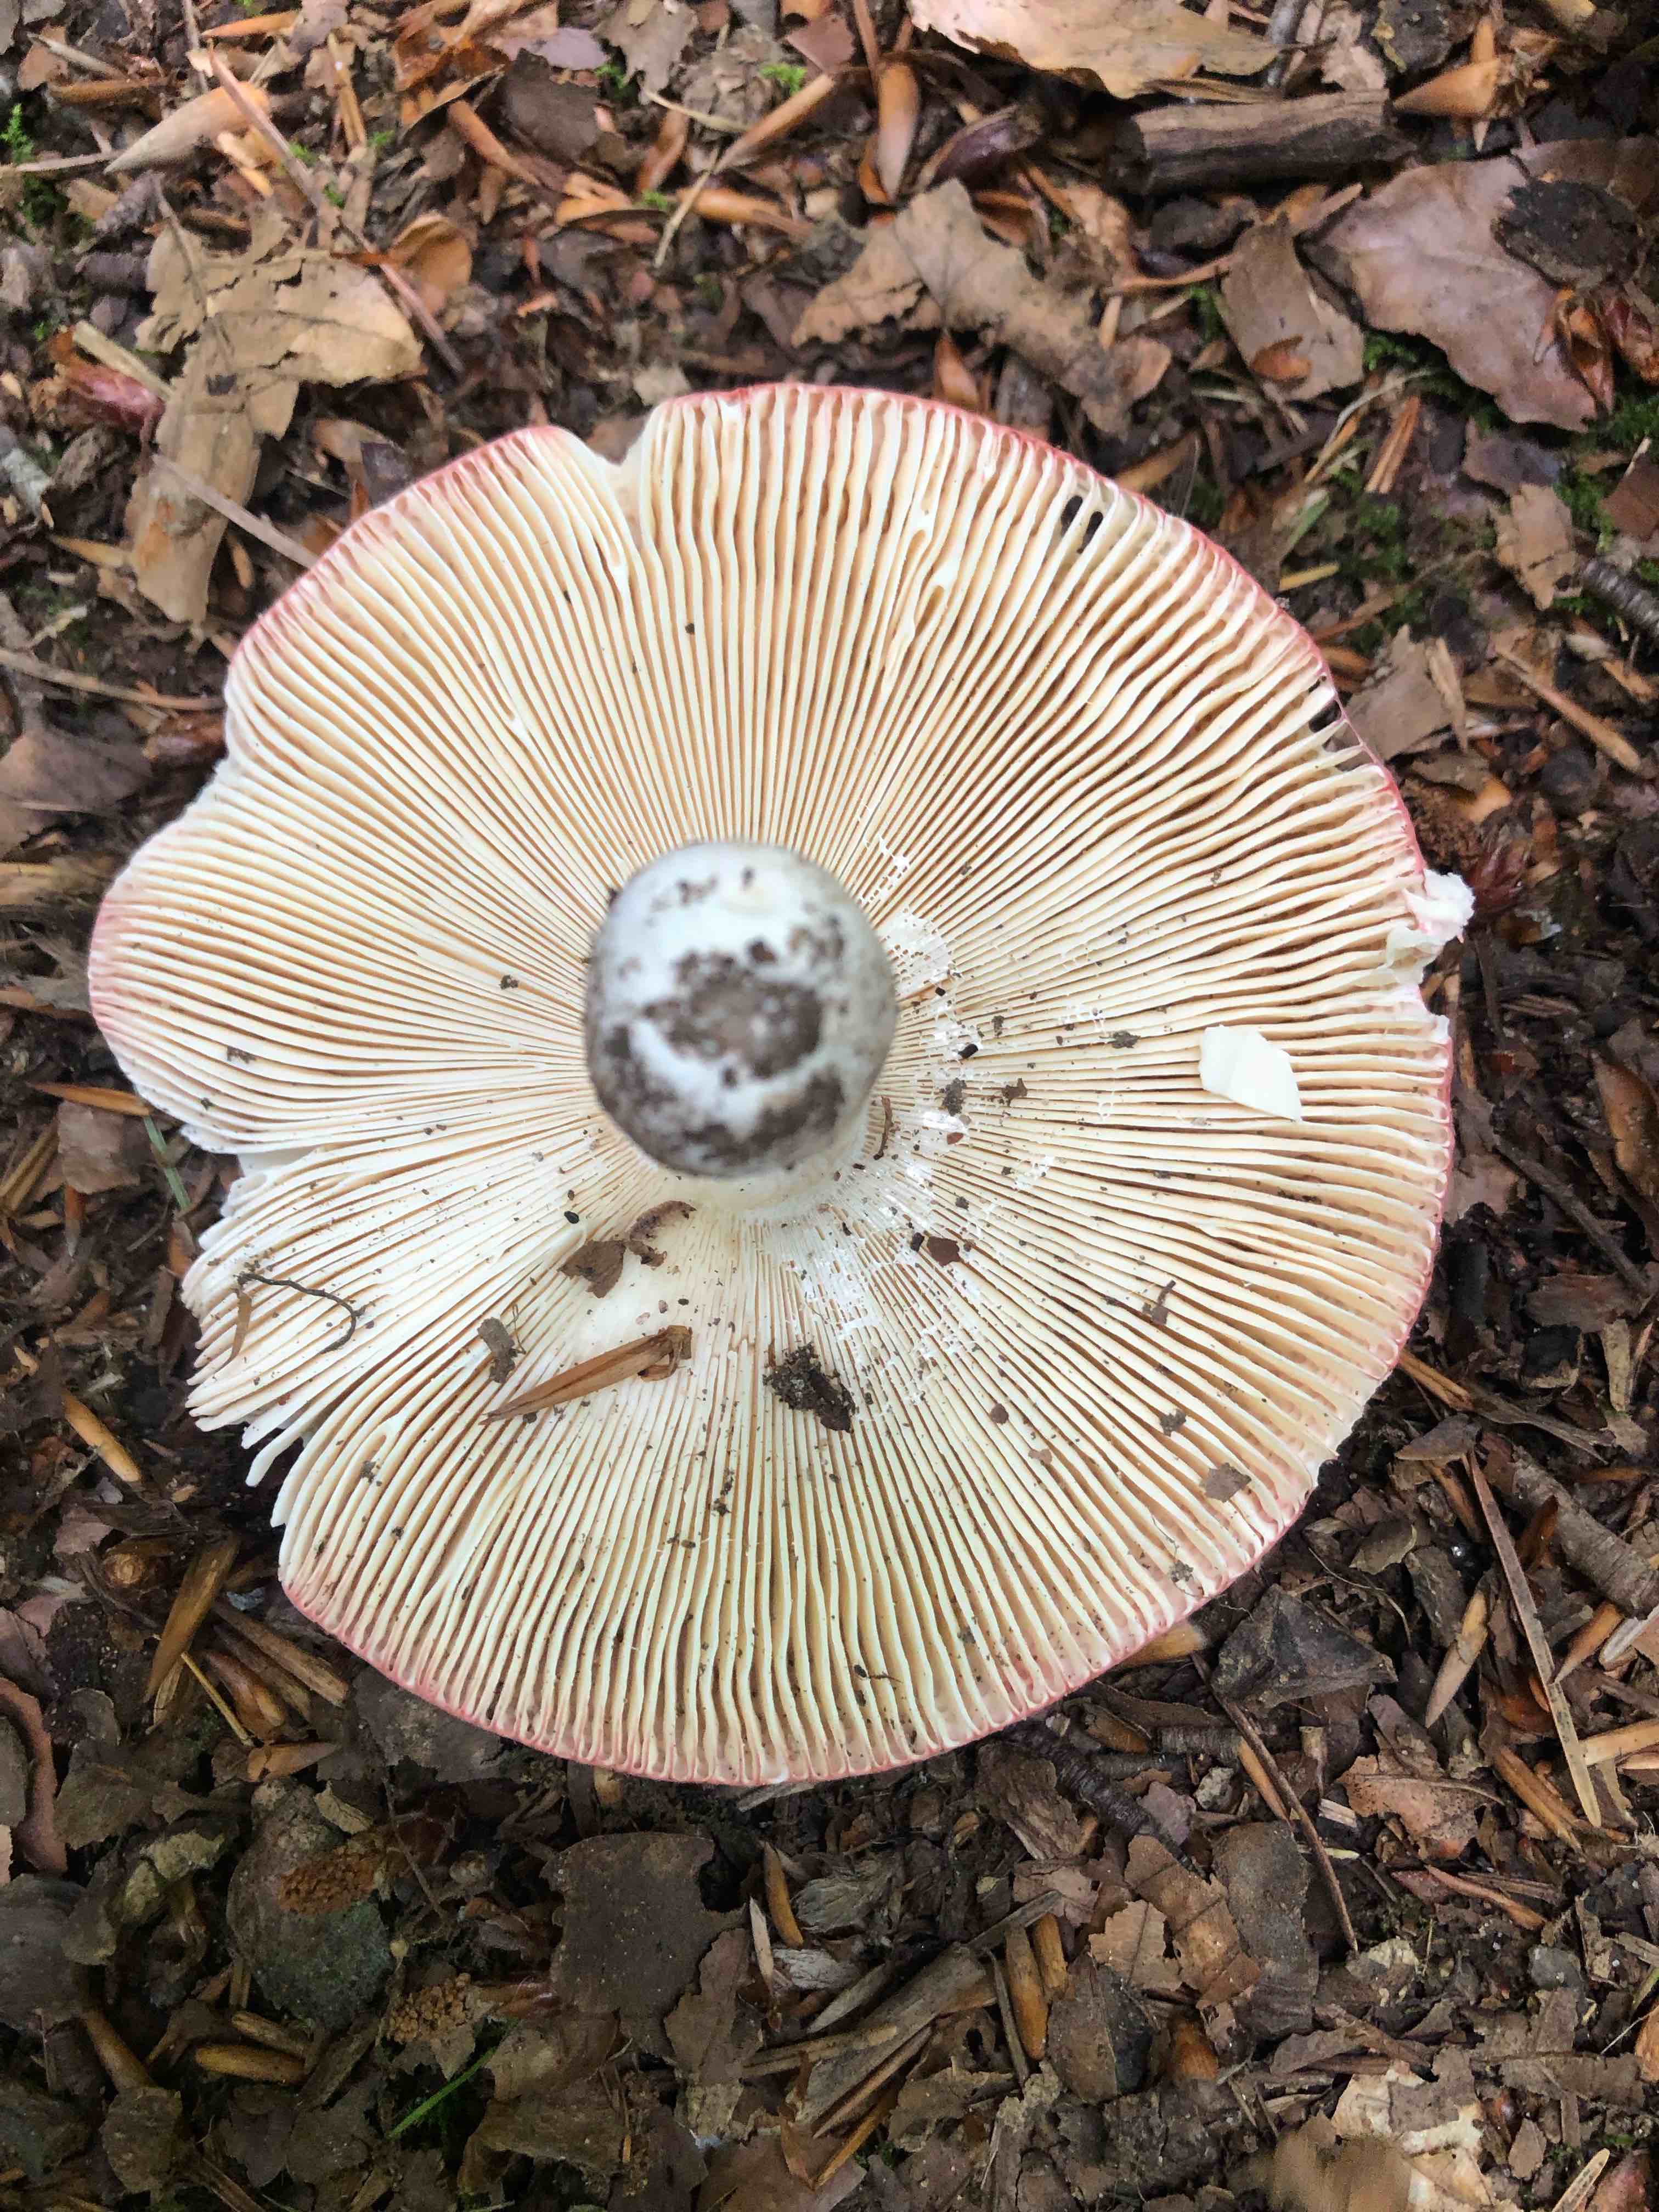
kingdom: Fungi
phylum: Basidiomycota
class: Agaricomycetes
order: Russulales
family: Russulaceae
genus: Russula
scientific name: Russula
